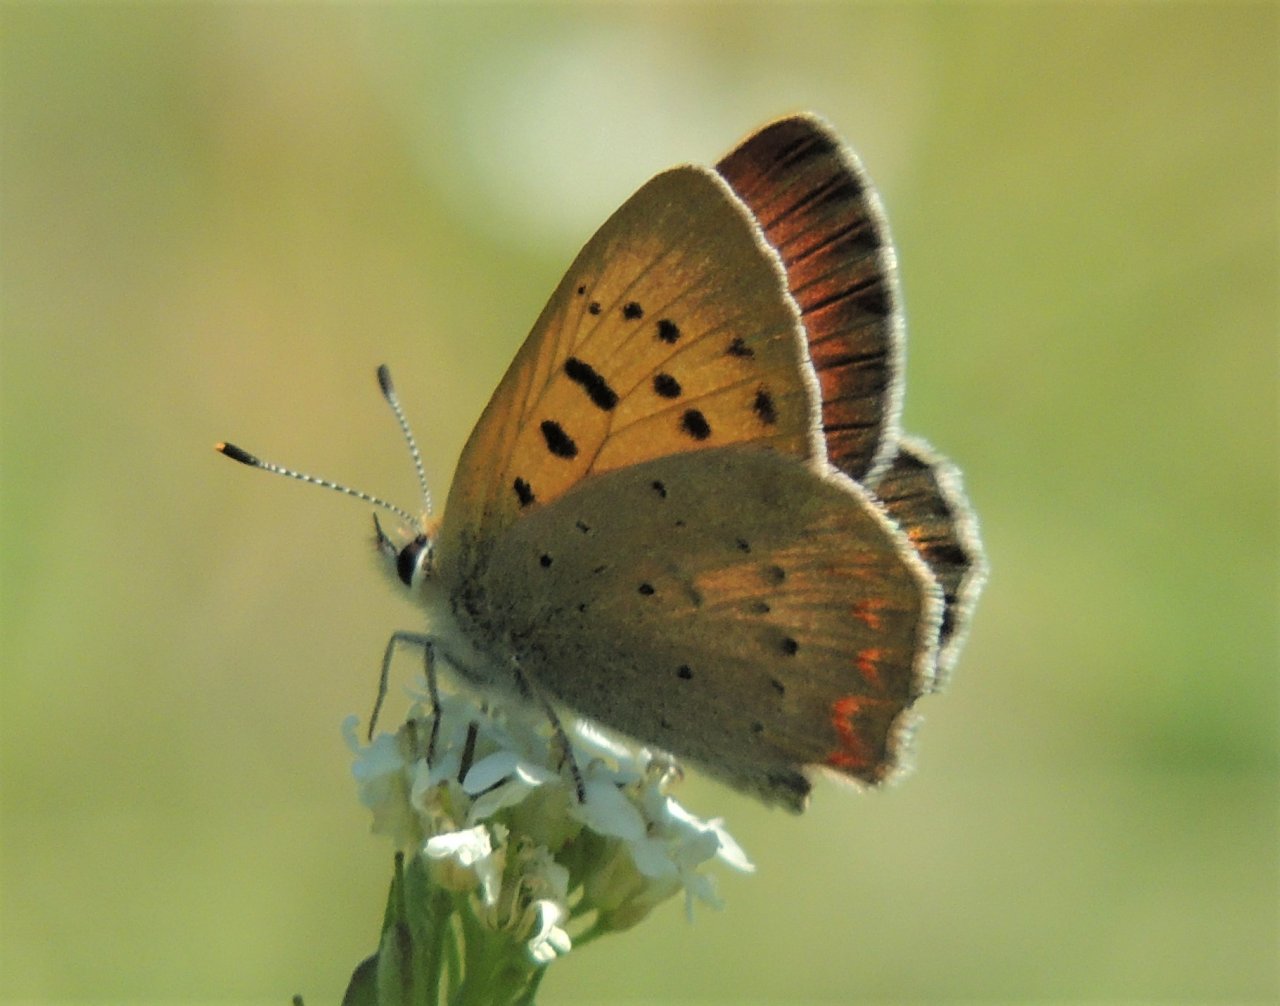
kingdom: Animalia
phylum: Arthropoda
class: Insecta
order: Lepidoptera
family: Sesiidae
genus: Sesia
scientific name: Sesia Lycaena helloides
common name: Purplish Copper
